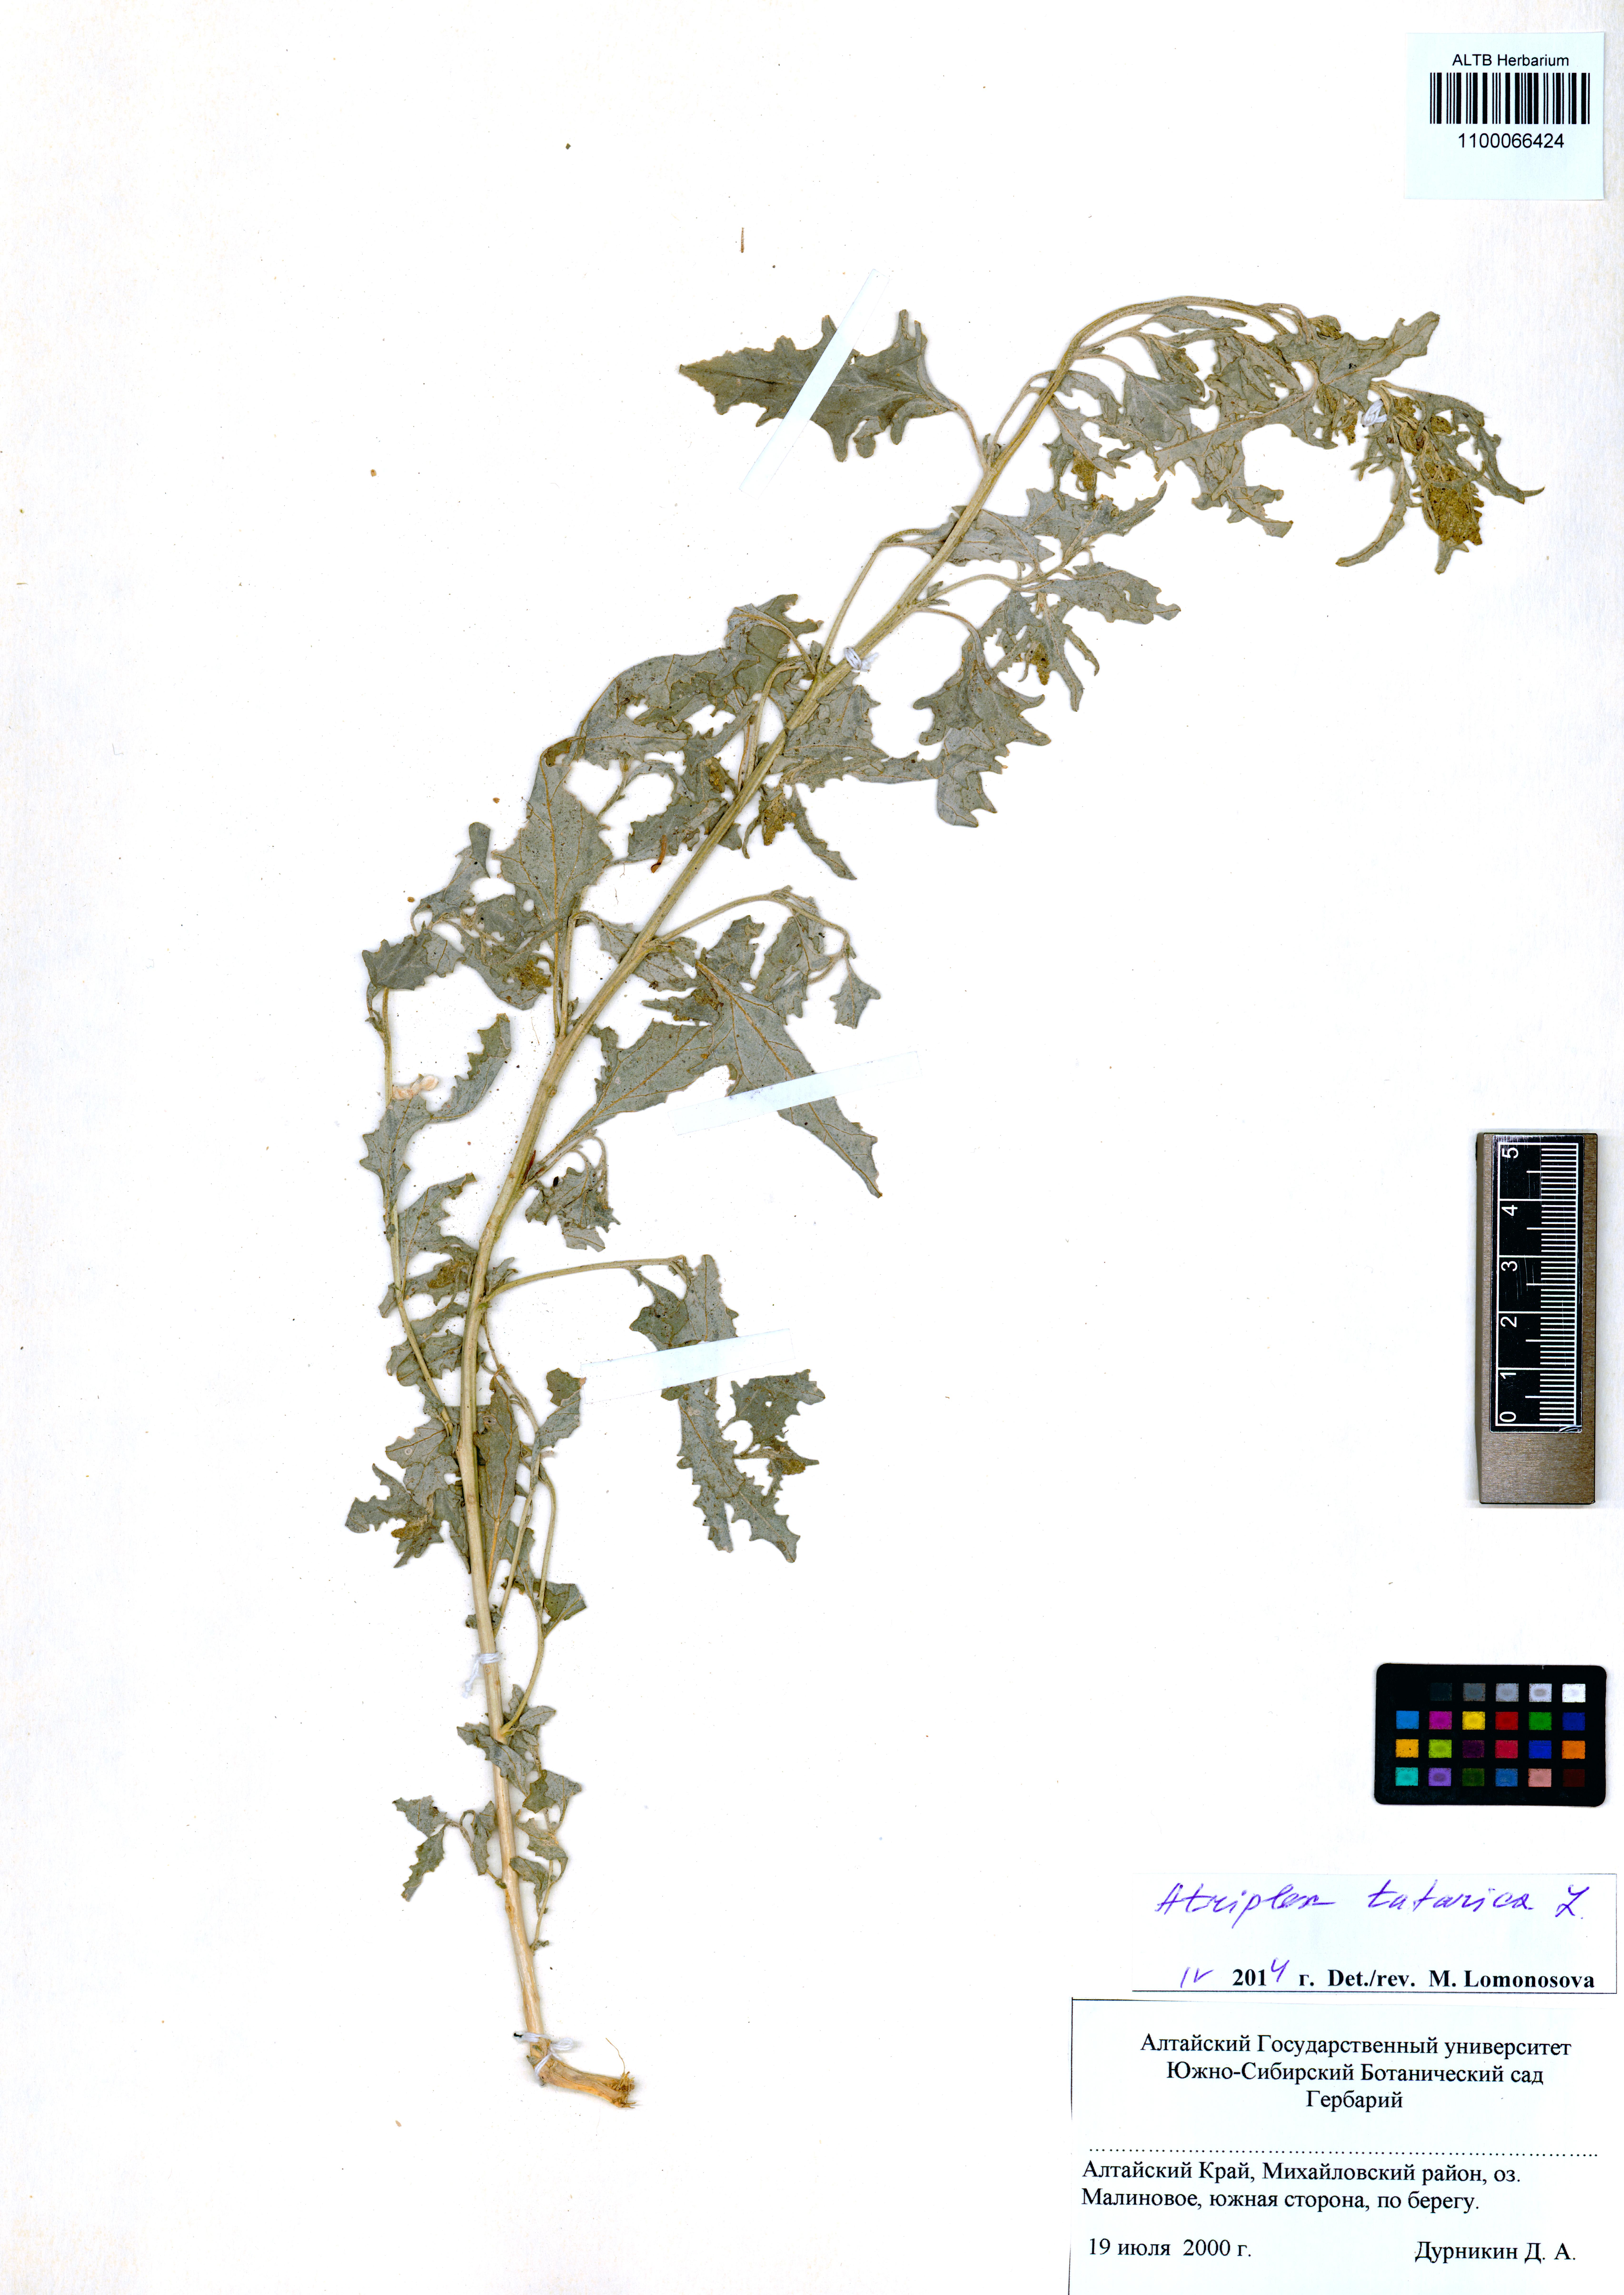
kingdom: Plantae
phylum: Tracheophyta
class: Magnoliopsida
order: Caryophyllales
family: Amaranthaceae
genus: Atriplex
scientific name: Atriplex tatarica
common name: Tatarian orache
